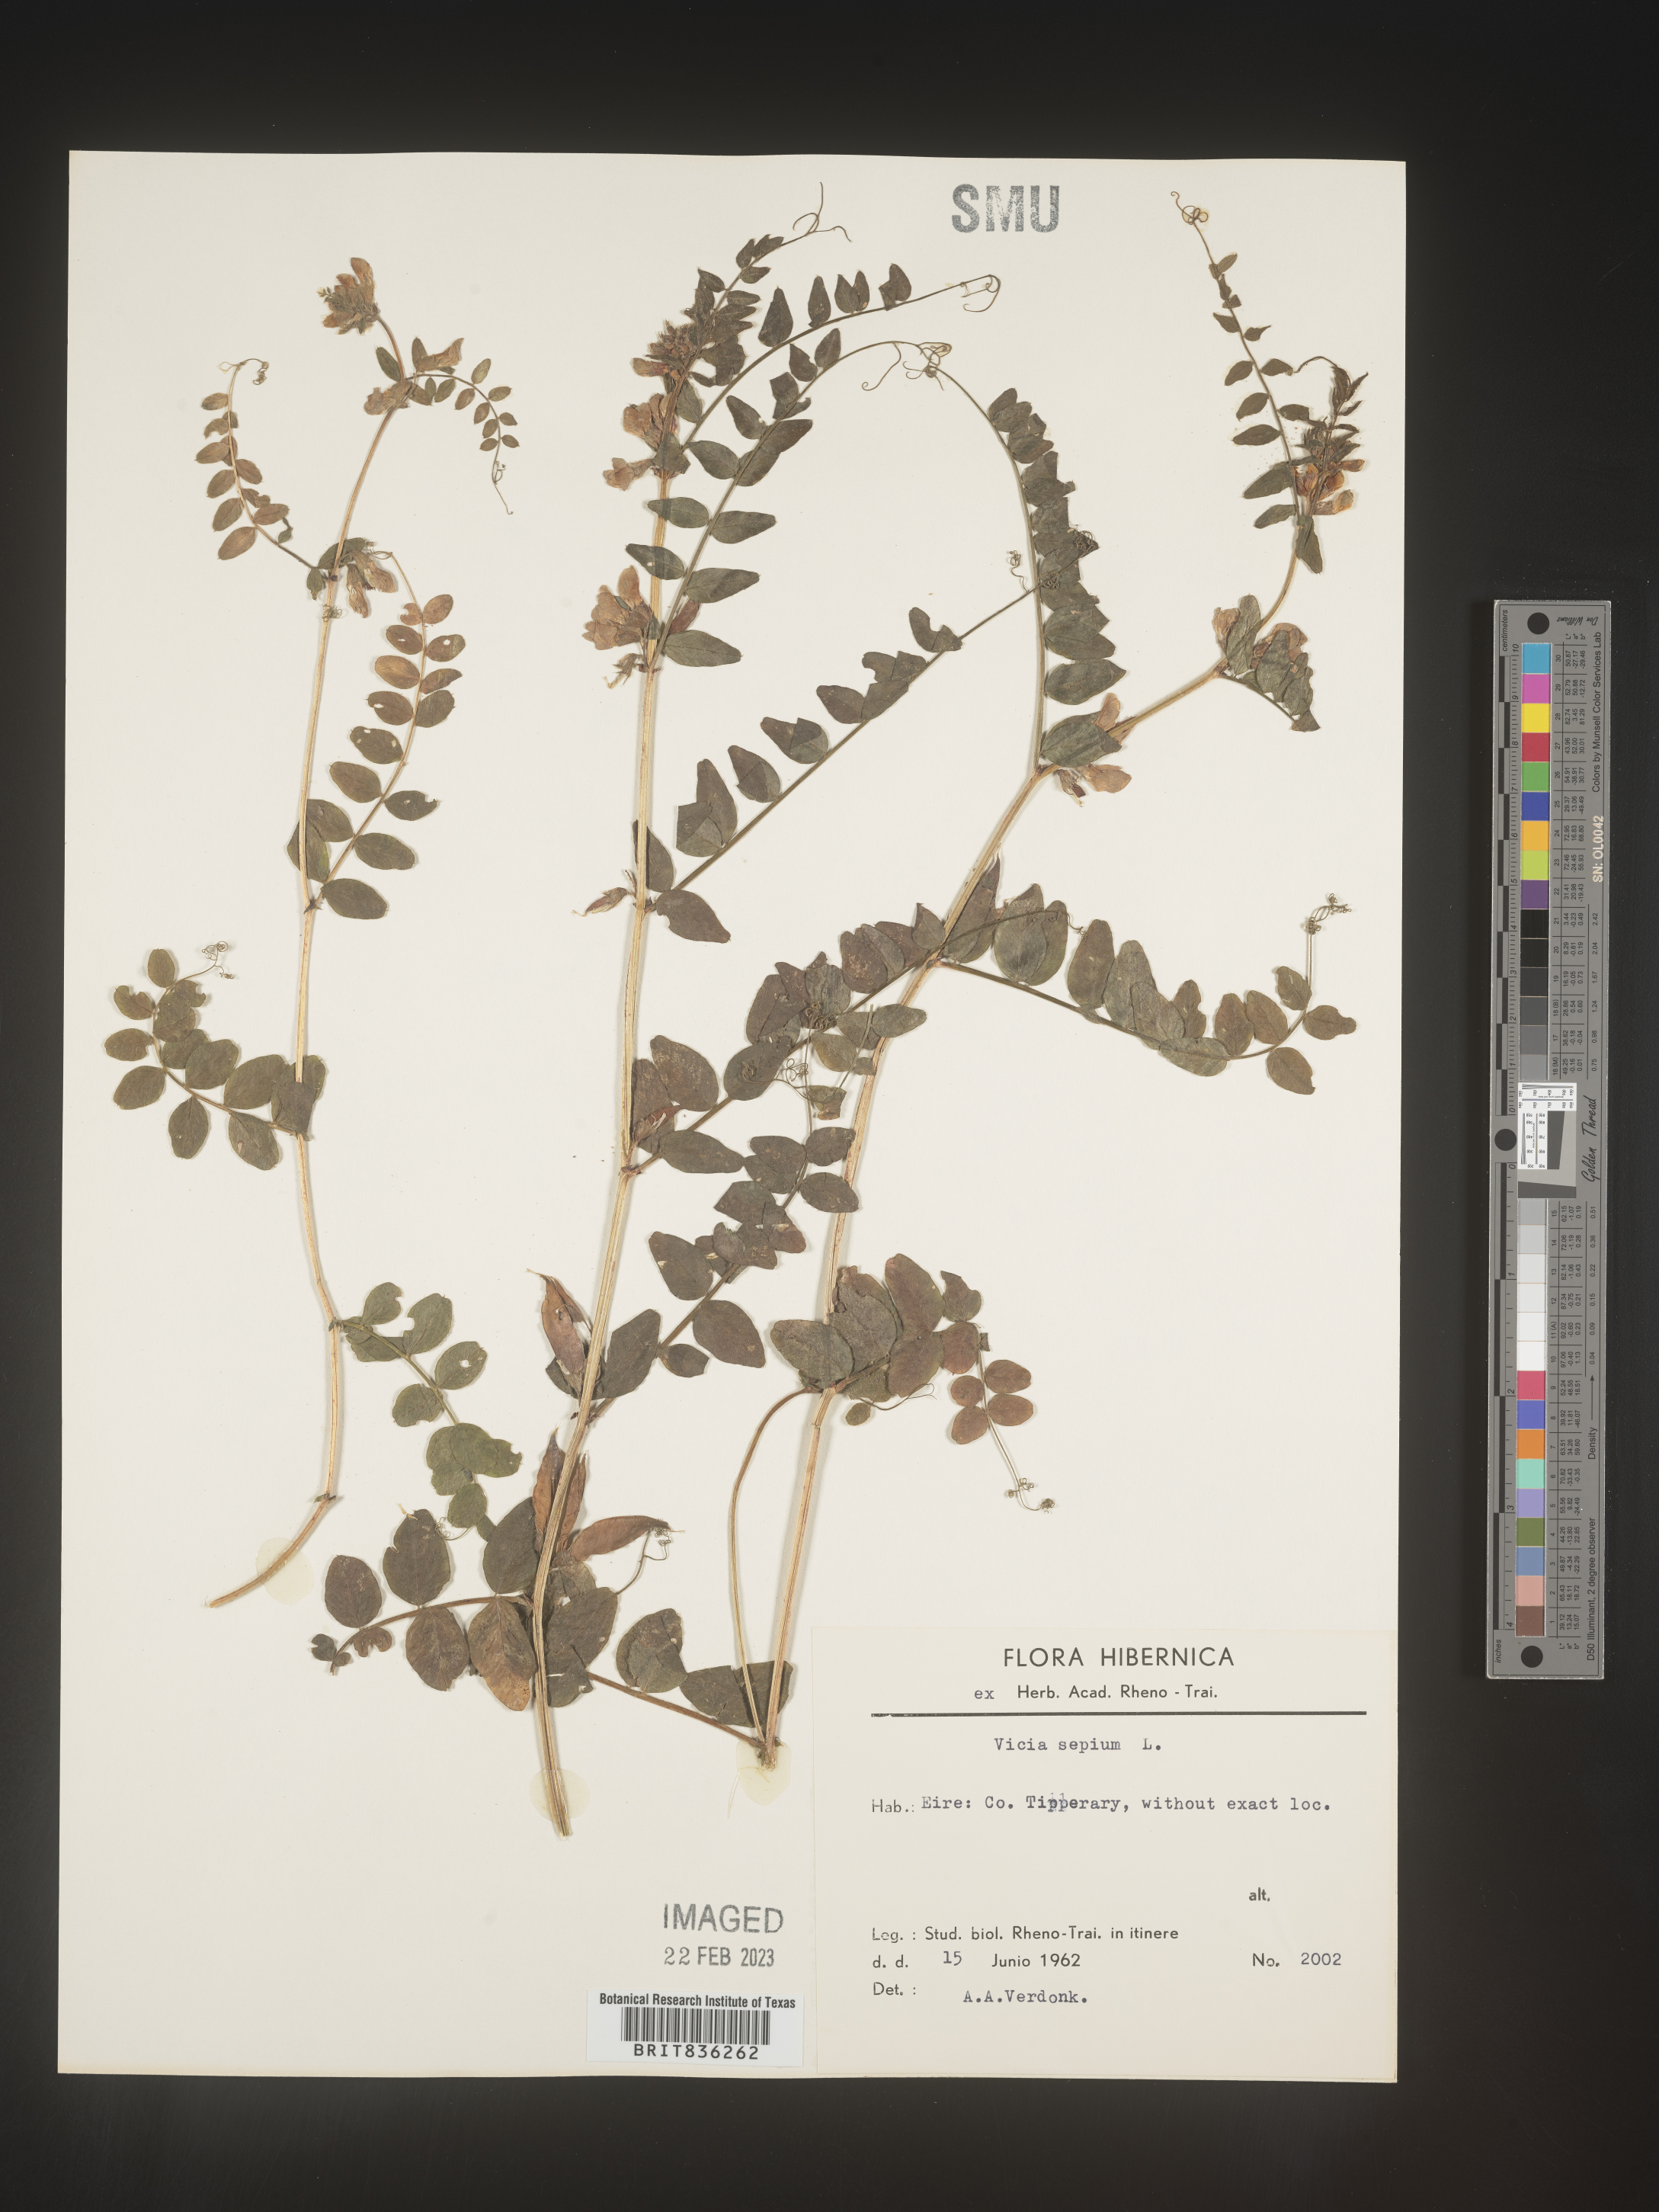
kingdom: Plantae
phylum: Tracheophyta
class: Magnoliopsida
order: Fabales
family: Fabaceae
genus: Vicia
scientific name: Vicia
